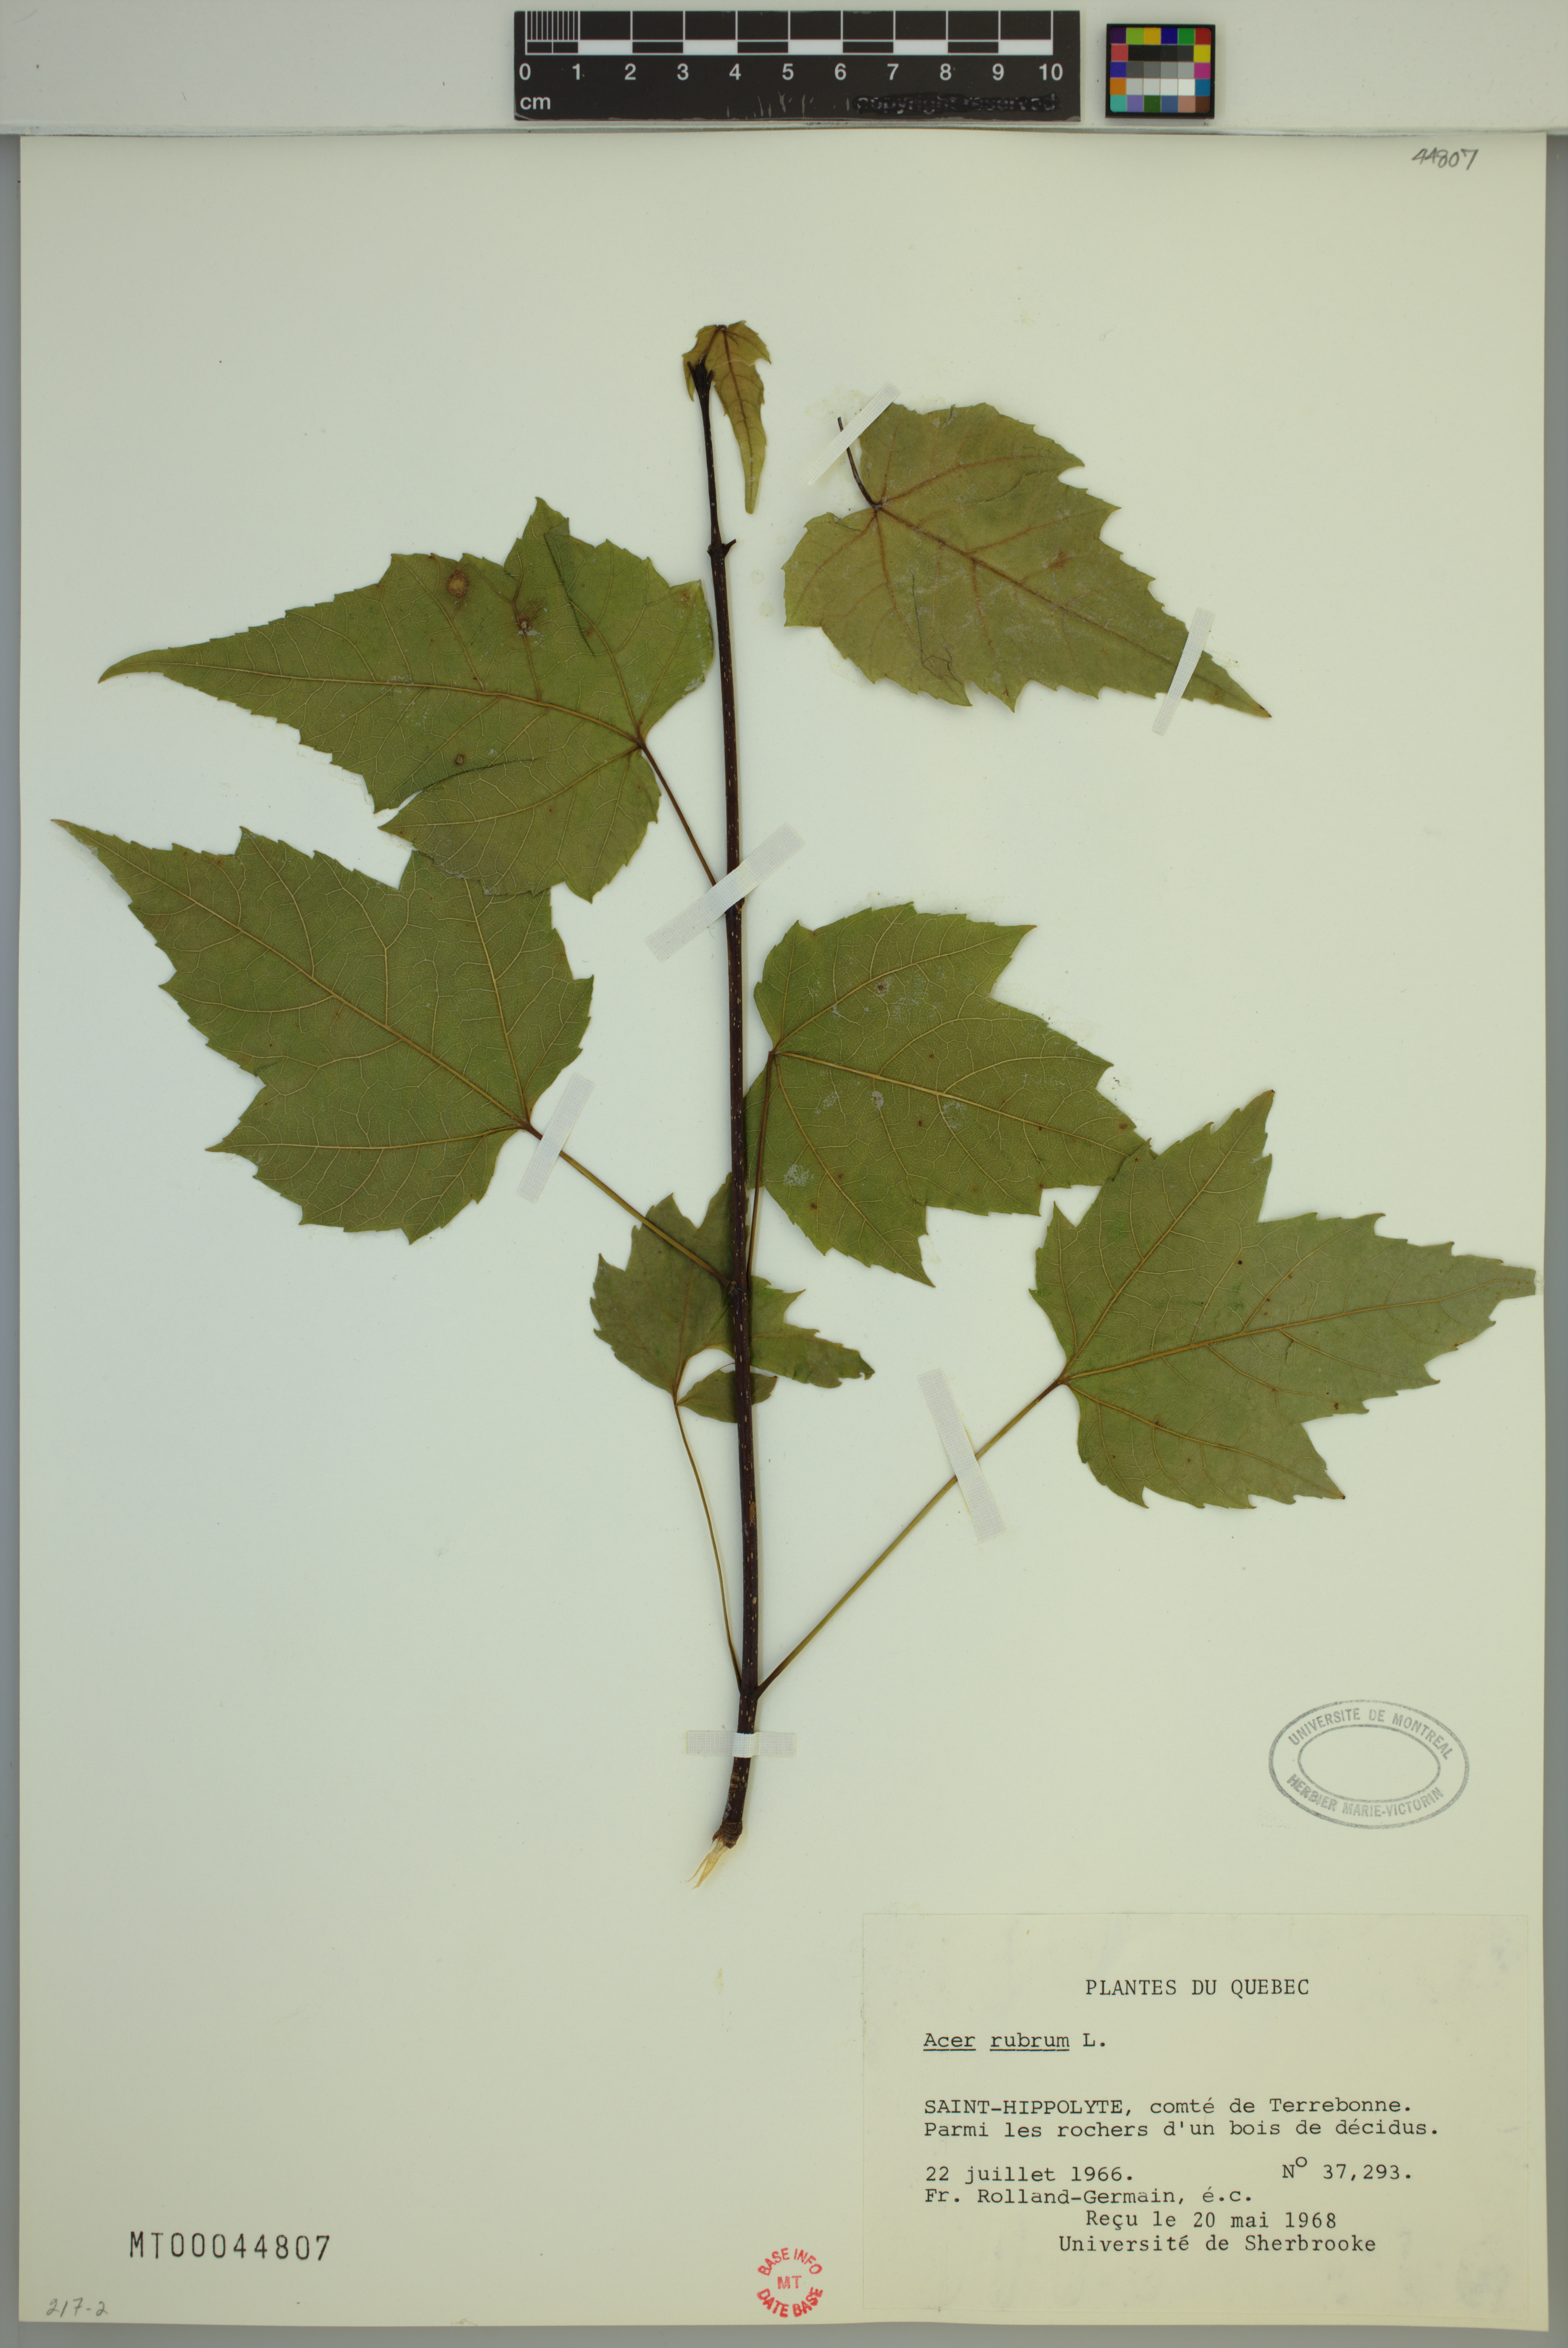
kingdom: Plantae
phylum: Tracheophyta
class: Magnoliopsida
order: Sapindales
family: Sapindaceae
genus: Acer
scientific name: Acer rubrum
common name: Red maple
